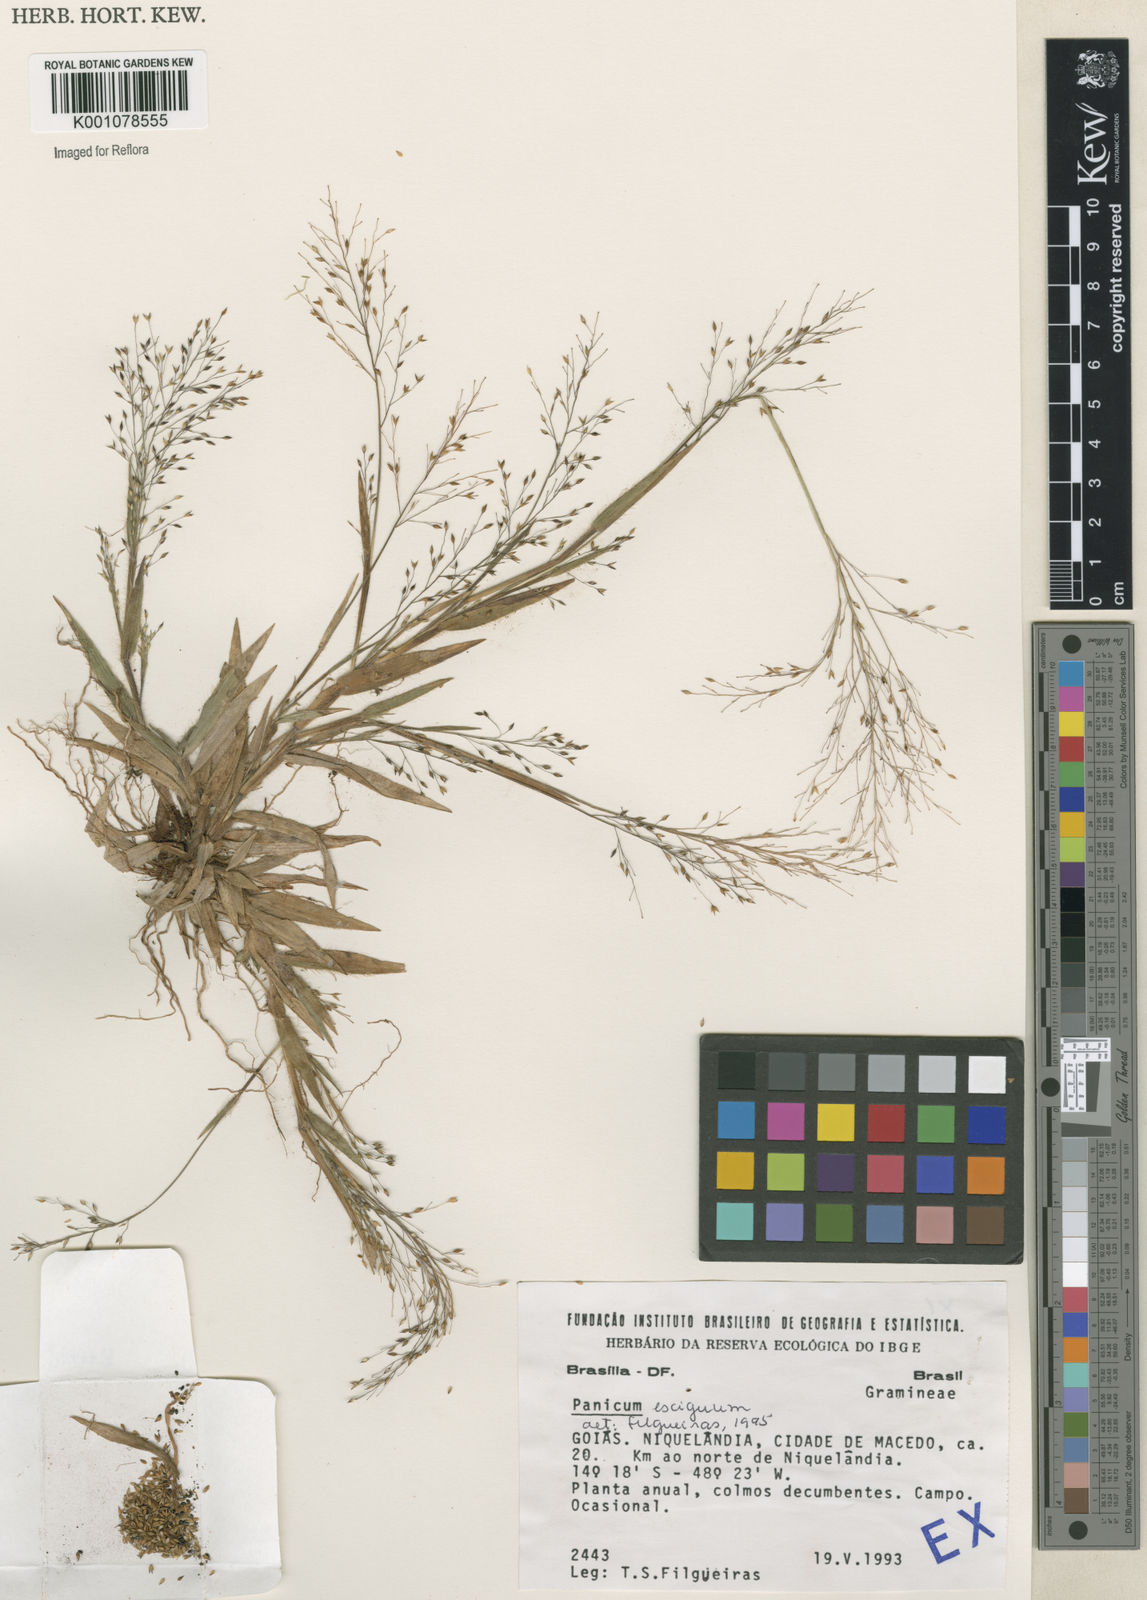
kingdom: Plantae
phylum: Tracheophyta
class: Liliopsida
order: Poales
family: Poaceae
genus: Panicum
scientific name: Panicum exiguum
